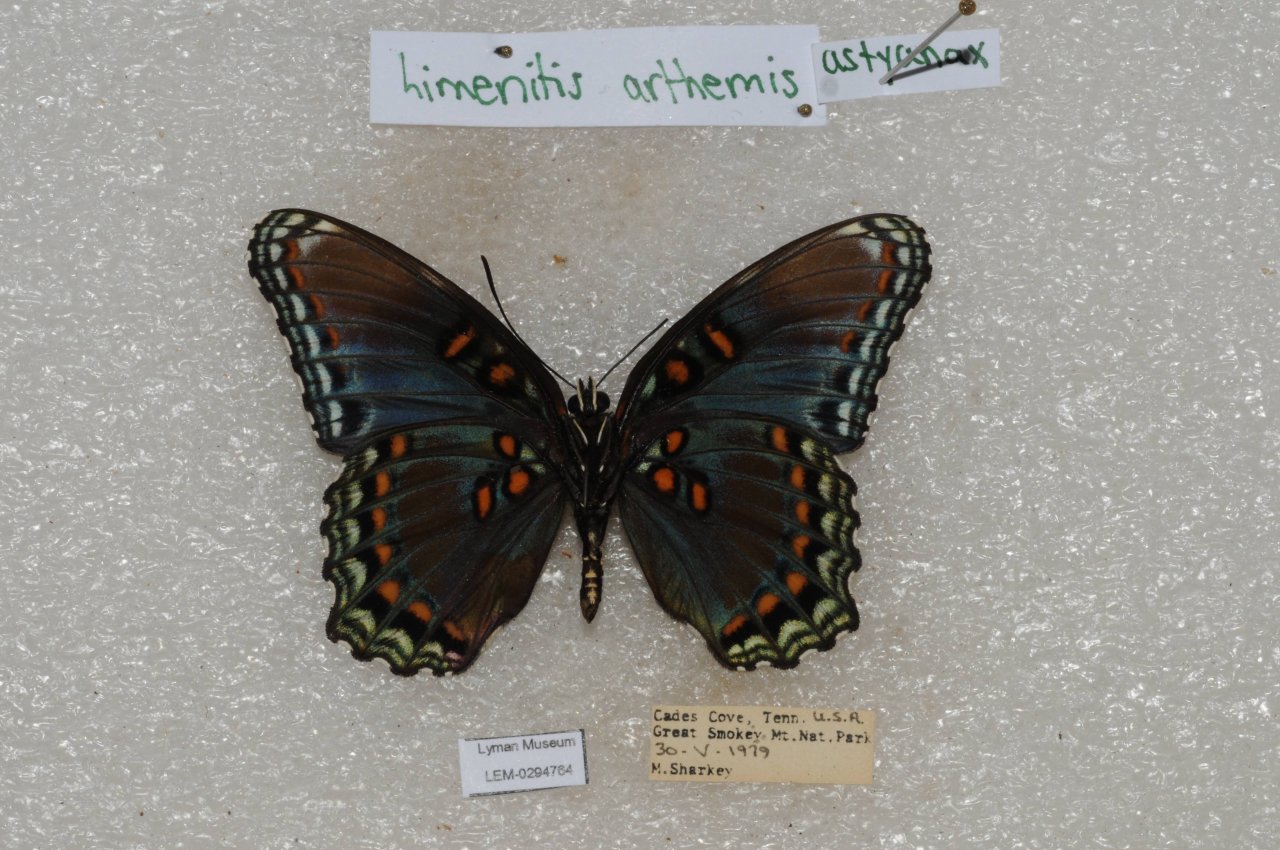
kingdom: Animalia
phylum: Arthropoda
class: Insecta
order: Lepidoptera
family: Nymphalidae
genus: Limenitis
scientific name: Limenitis astyanax
